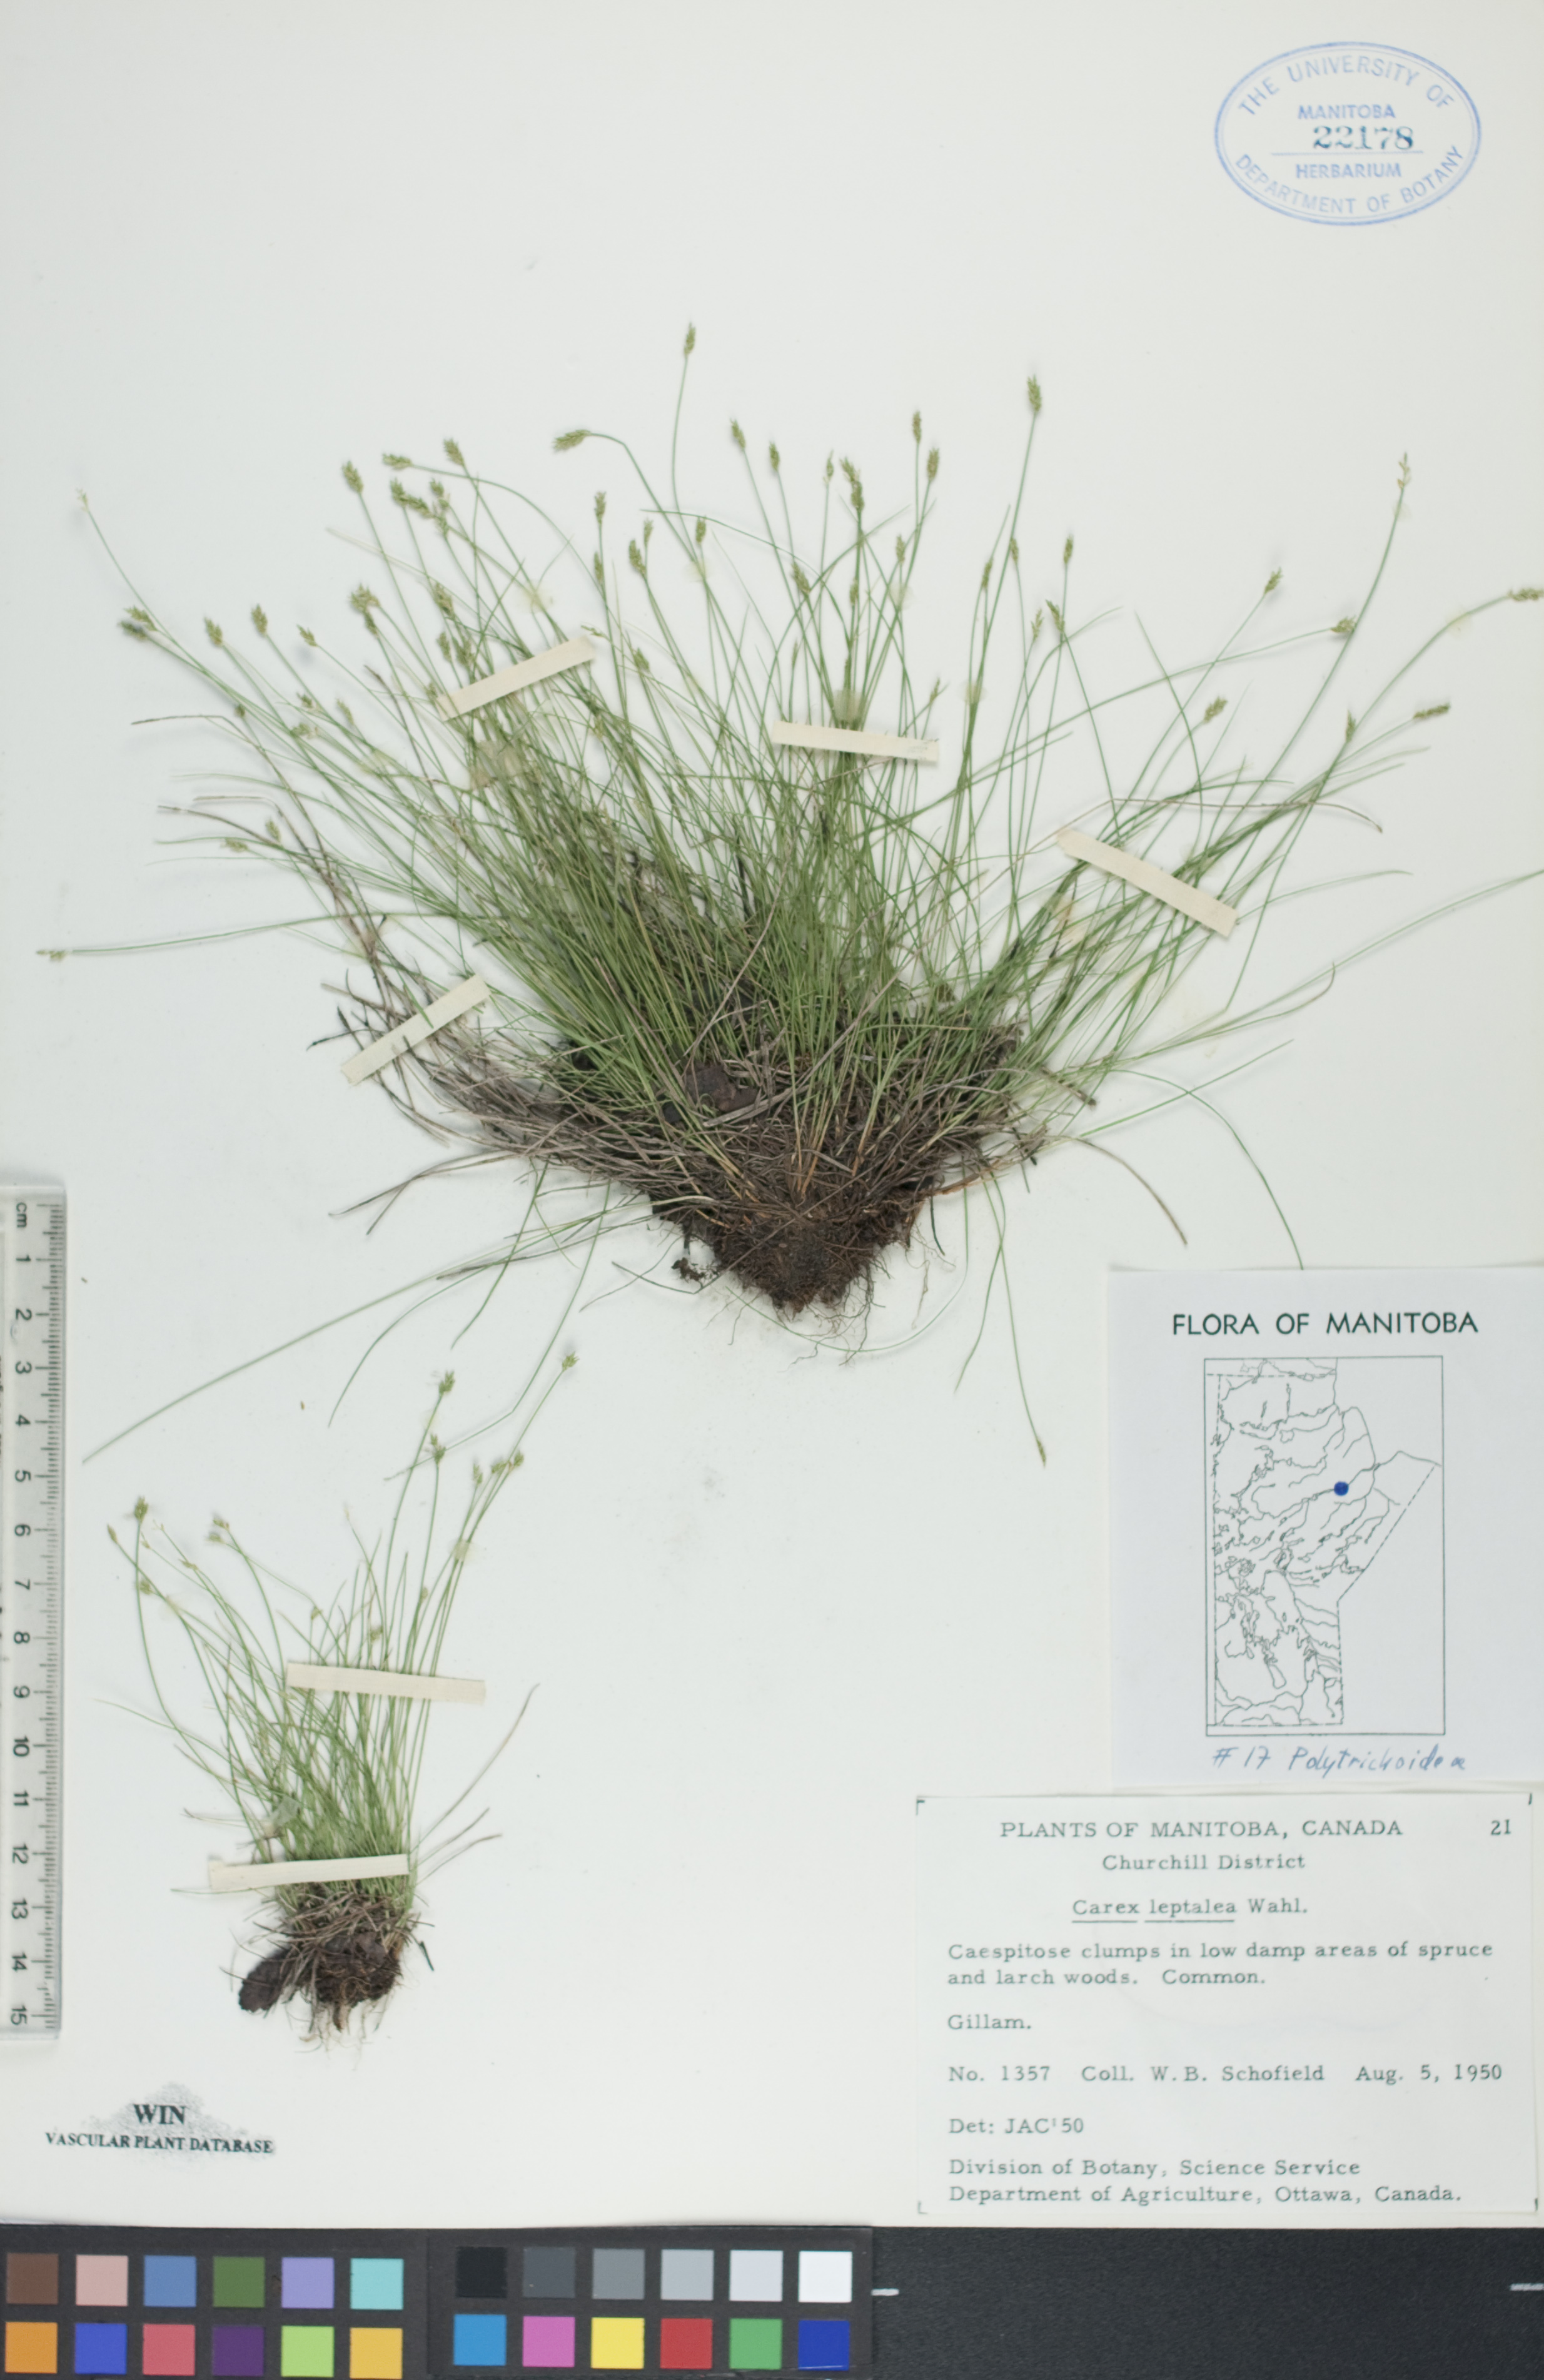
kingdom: Plantae
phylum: Tracheophyta
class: Liliopsida
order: Poales
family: Cyperaceae
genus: Carex
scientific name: Carex leptalea
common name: Bristly-stalked sedge
